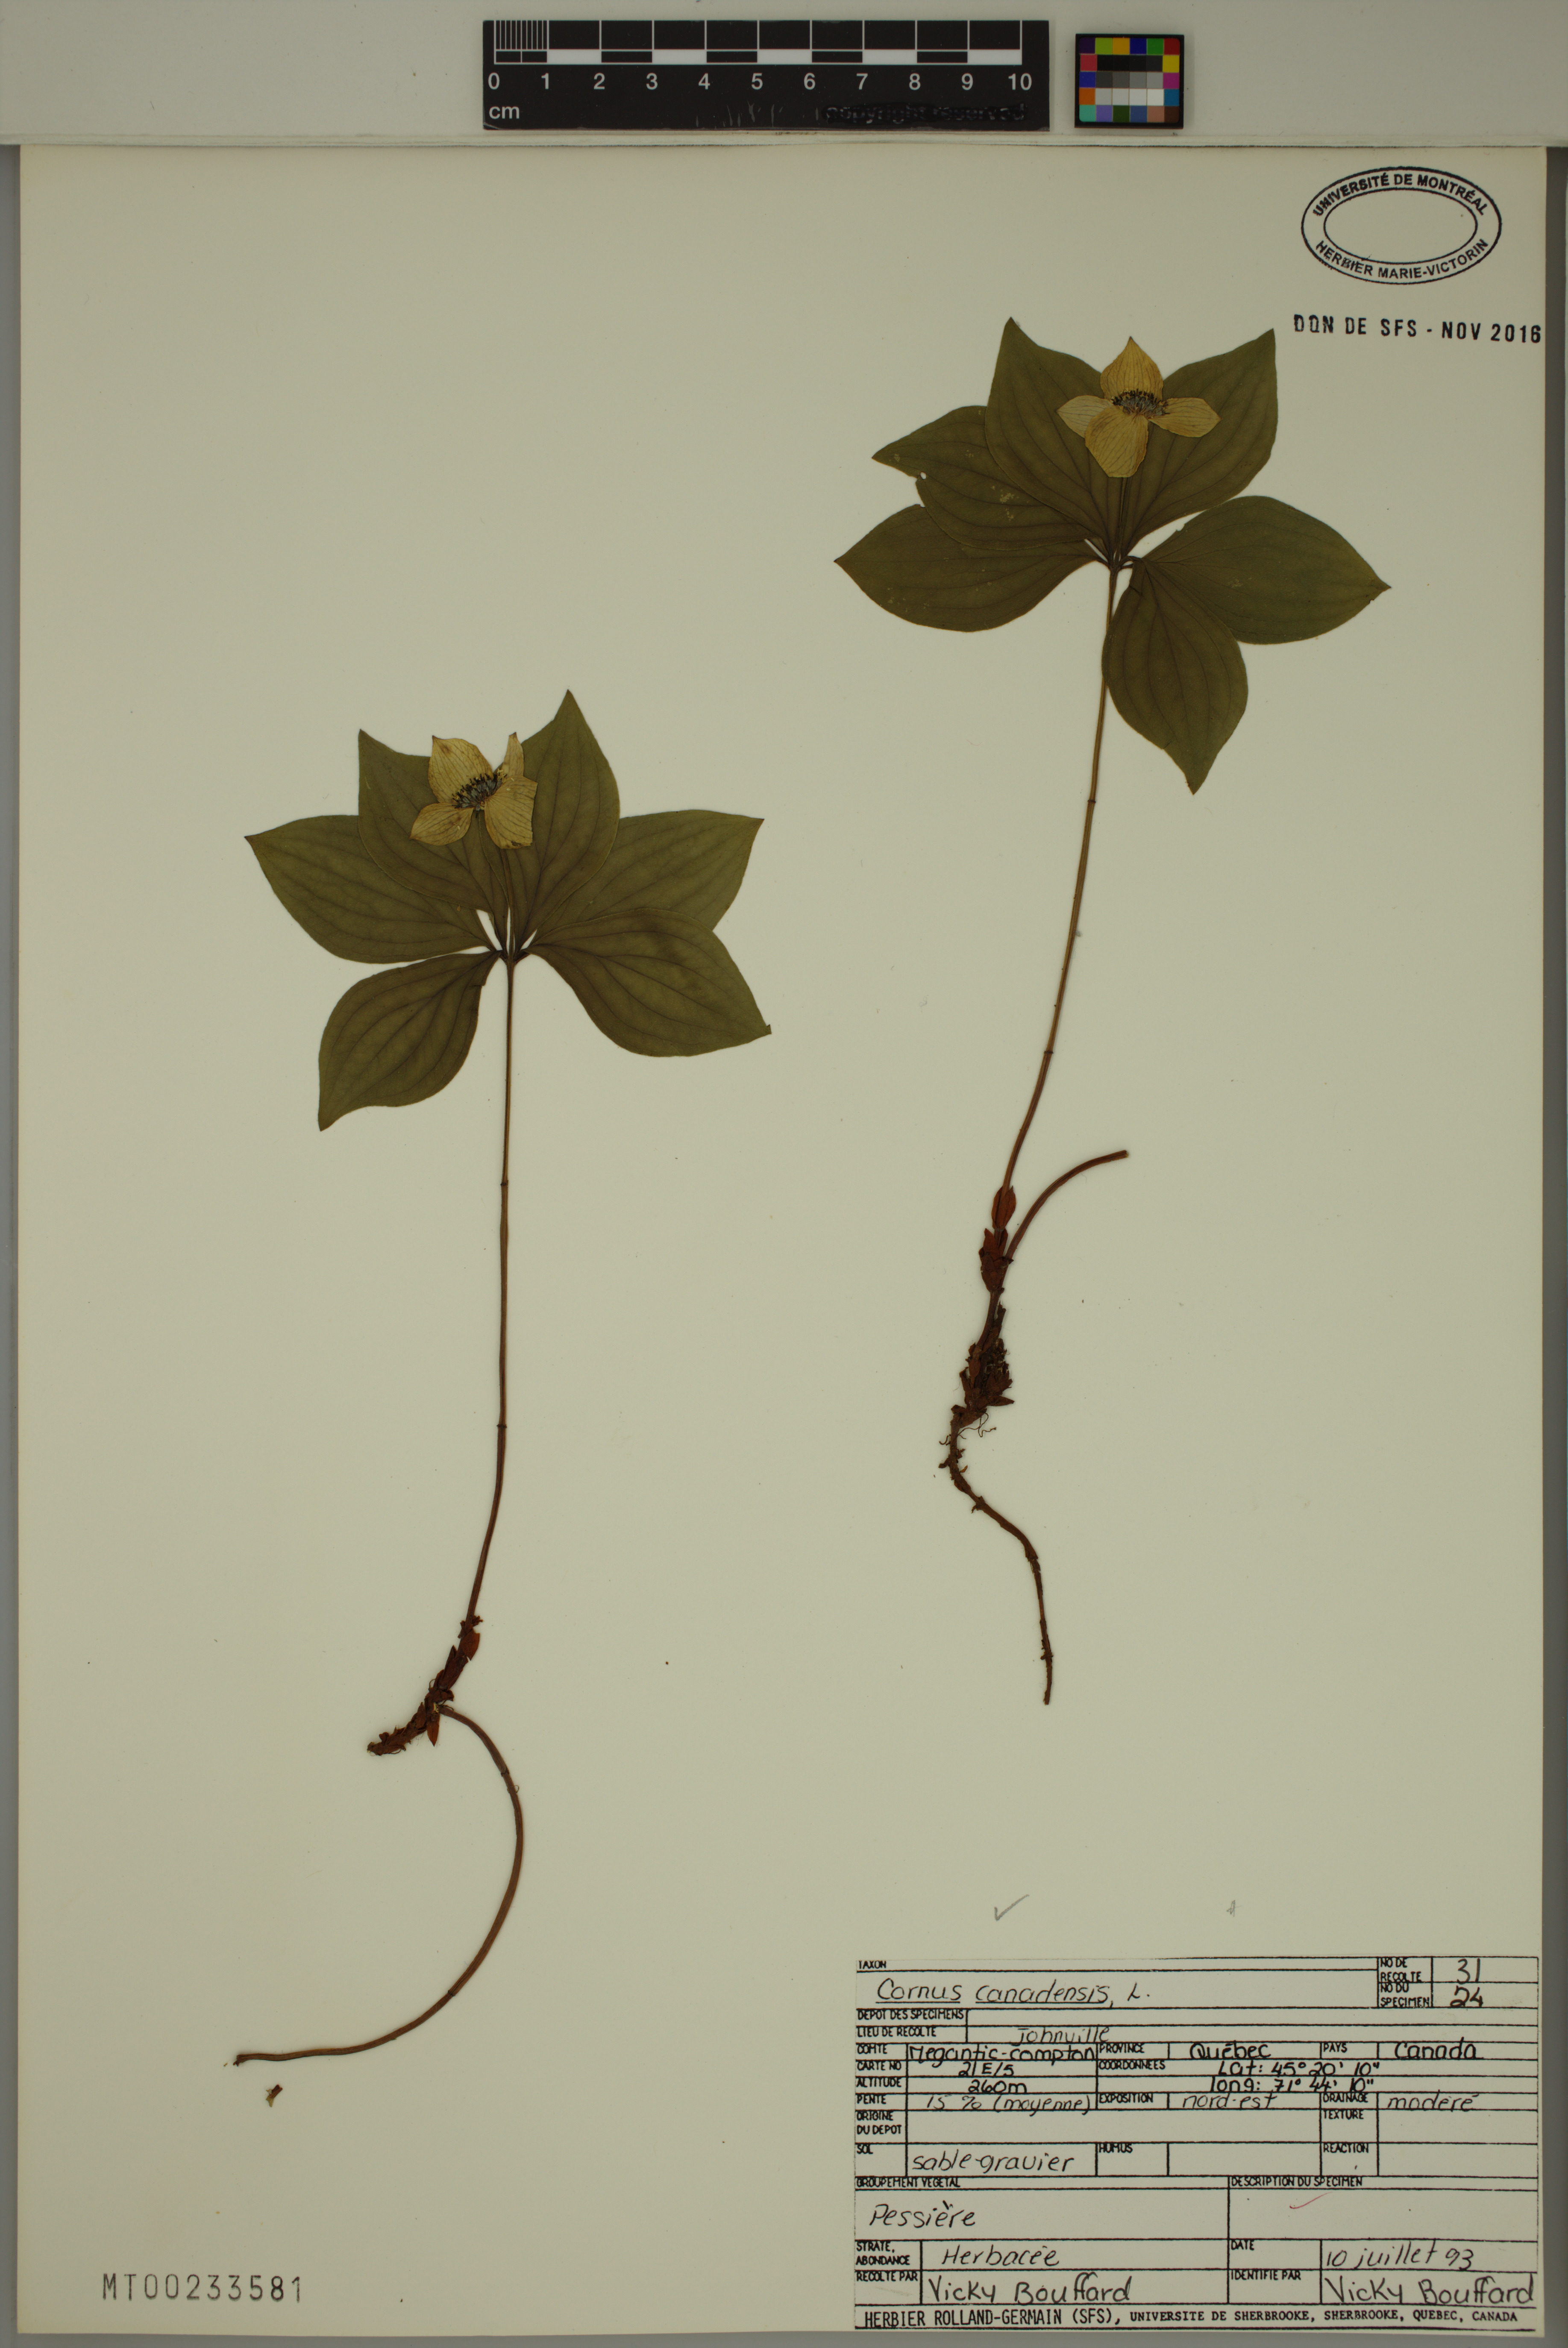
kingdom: Plantae
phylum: Tracheophyta
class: Magnoliopsida
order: Cornales
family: Cornaceae
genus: Cornus
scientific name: Cornus canadensis
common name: Creeping dogwood
